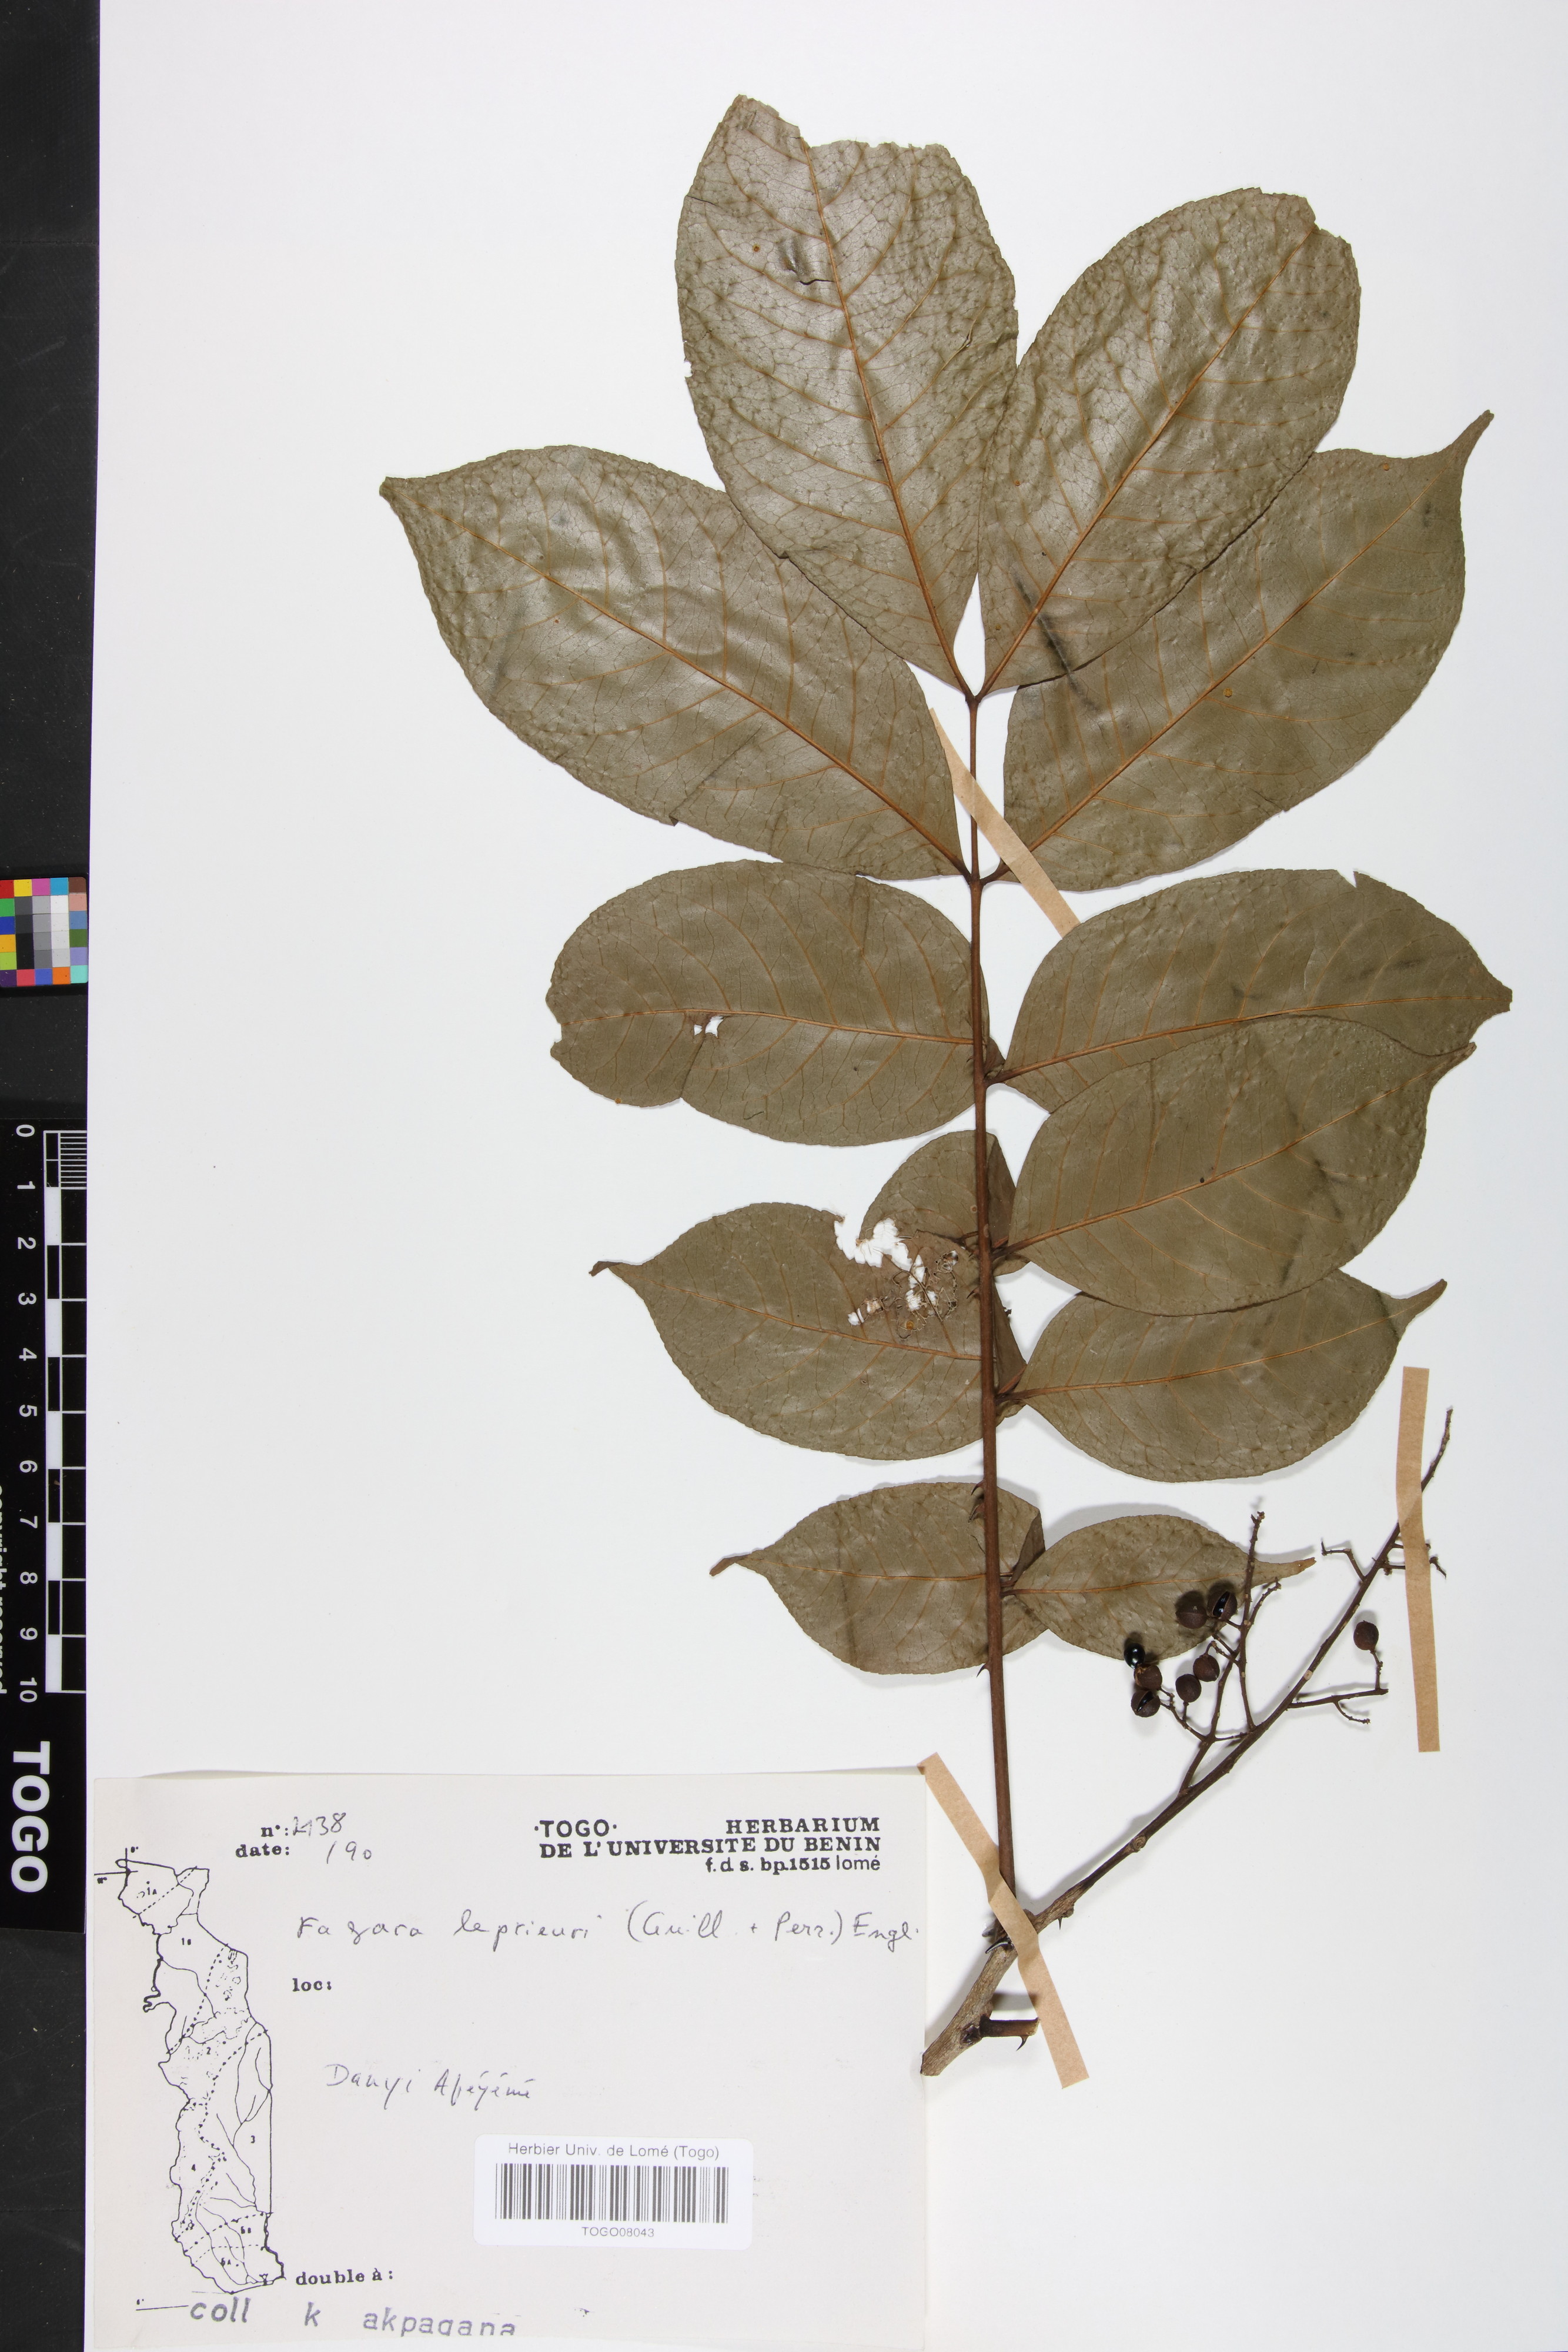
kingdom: Plantae
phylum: Tracheophyta
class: Magnoliopsida
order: Sapindales
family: Rutaceae
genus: Zanthoxylum
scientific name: Zanthoxylum leprieurii
